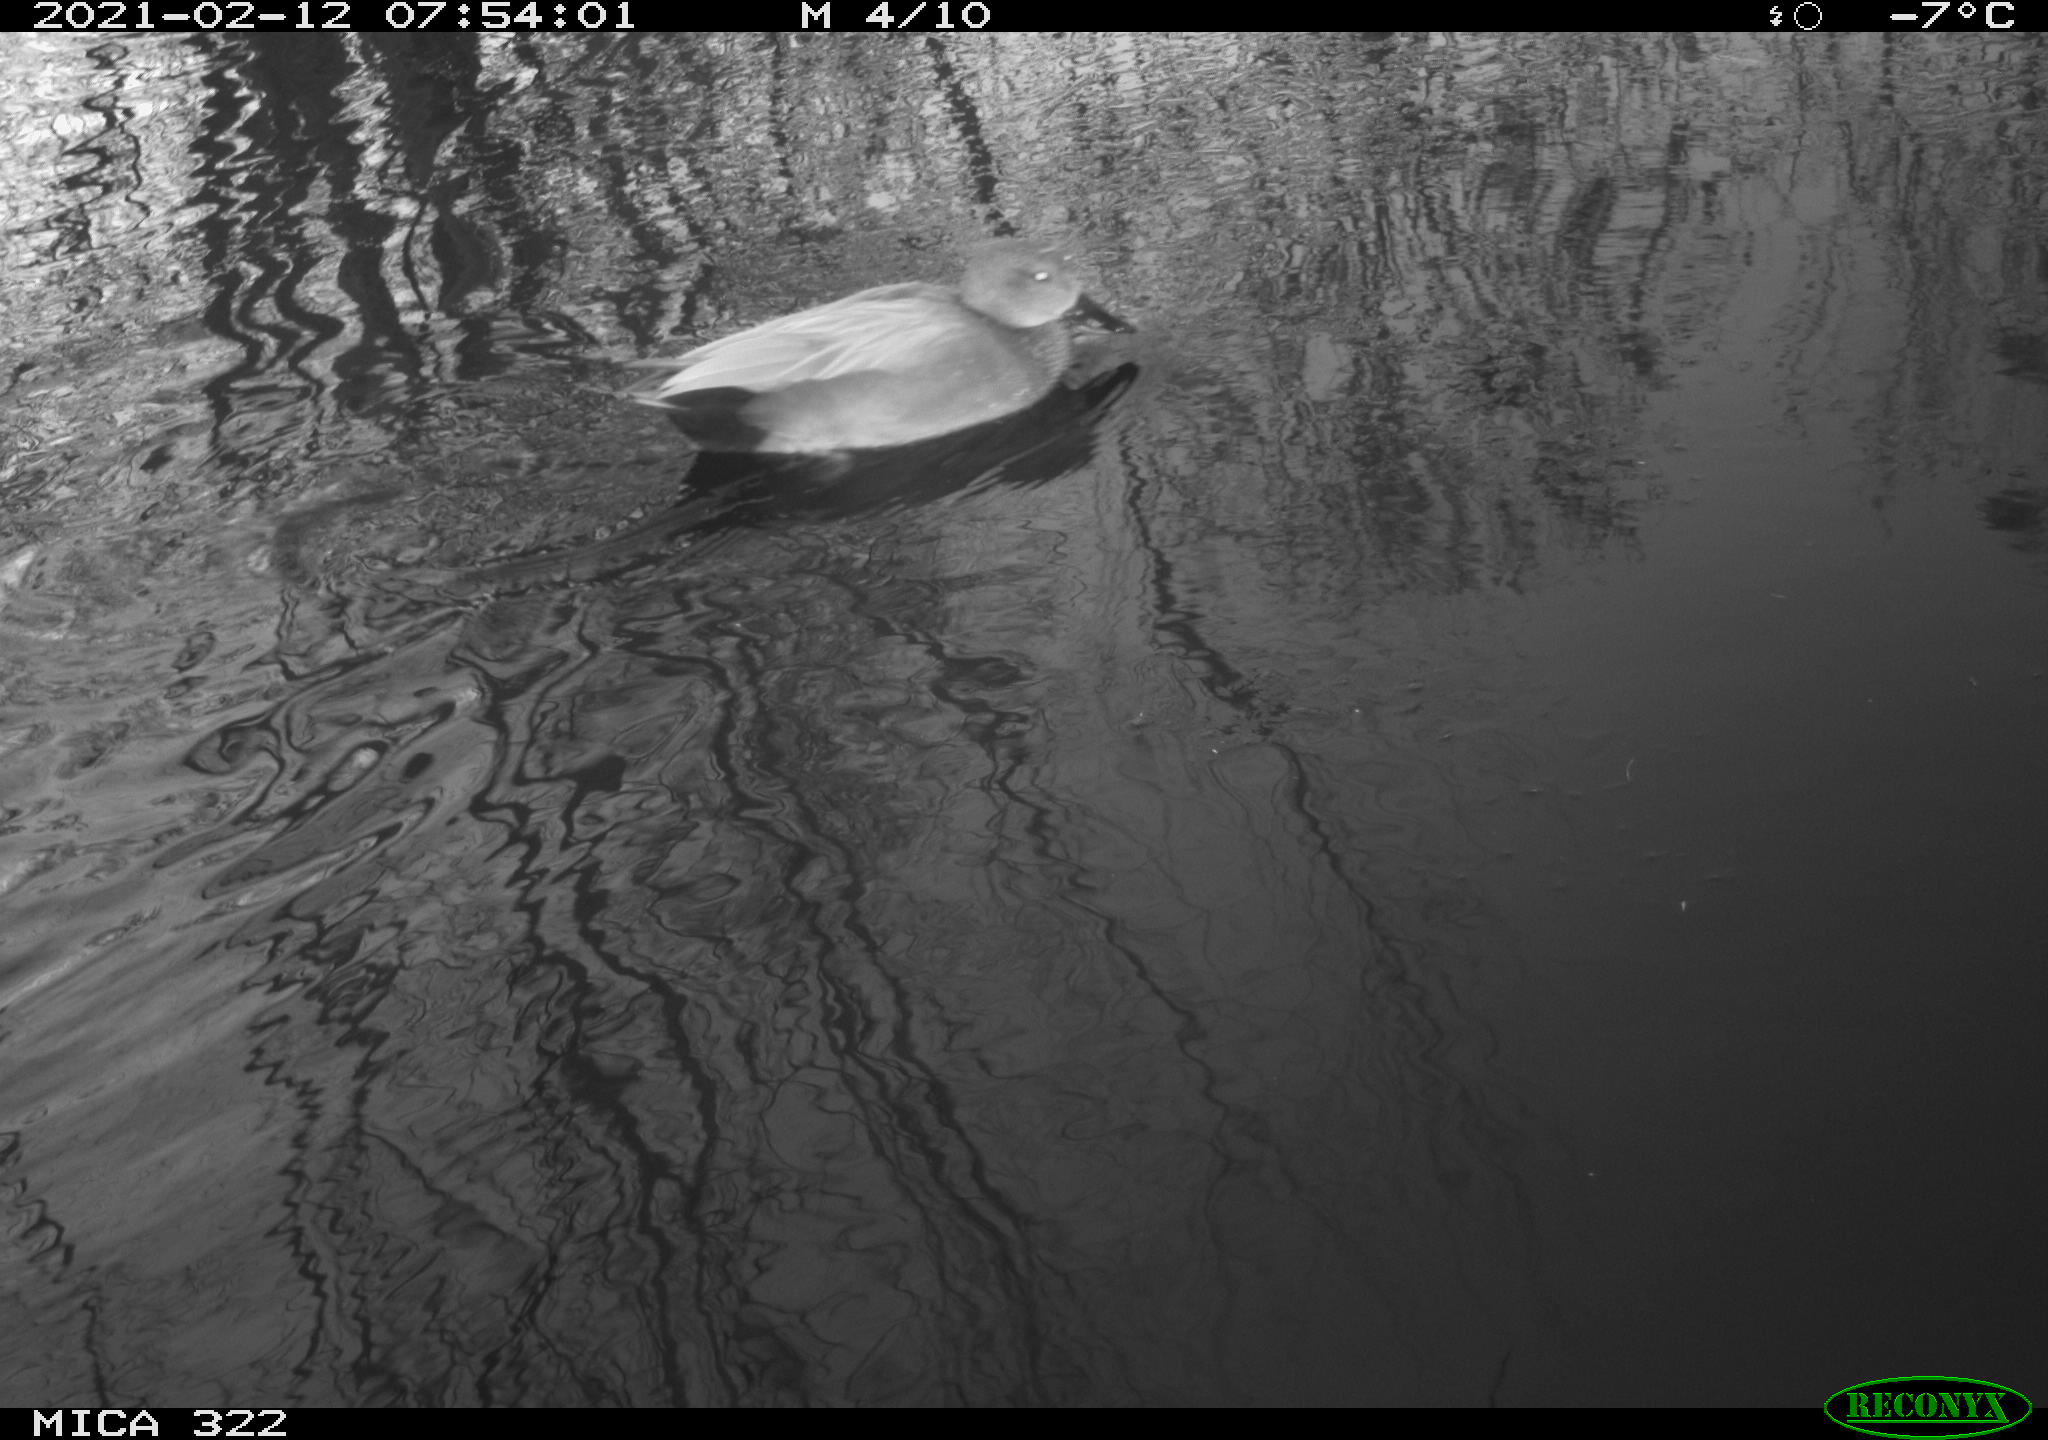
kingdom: Animalia
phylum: Chordata
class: Aves
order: Anseriformes
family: Anatidae
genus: Mareca
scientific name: Mareca strepera
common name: Gadwall
